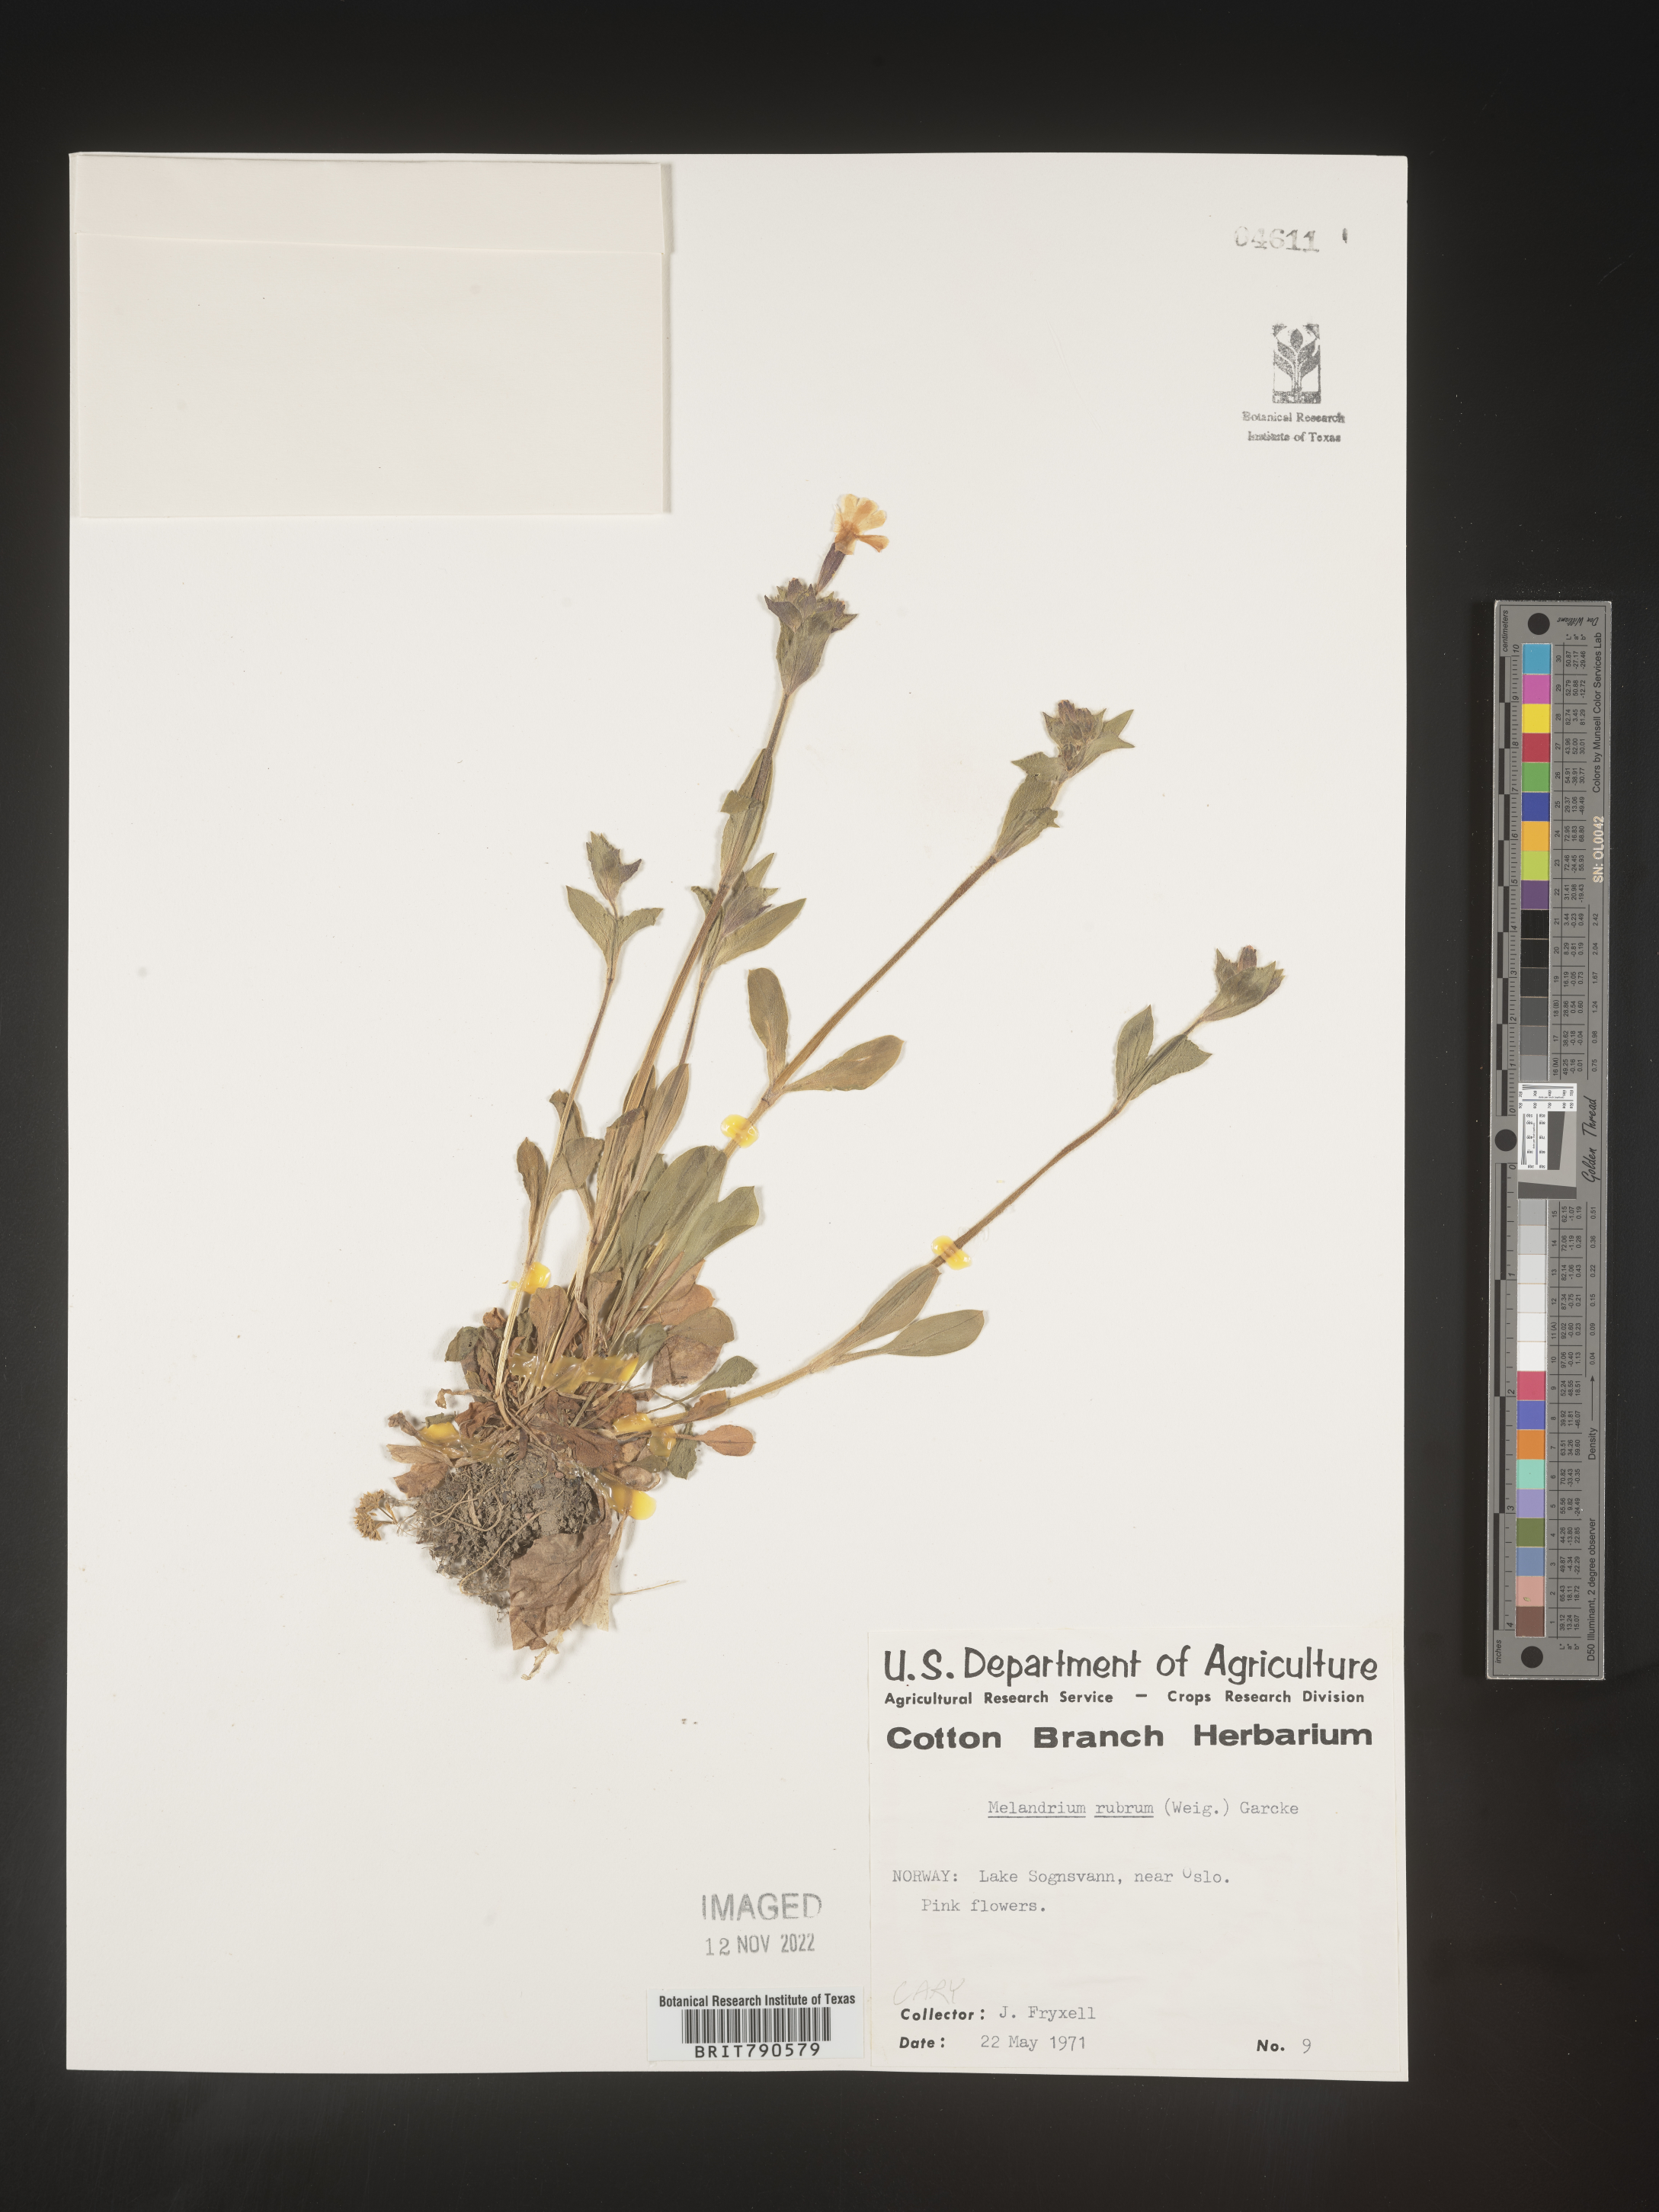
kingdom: Plantae
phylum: Tracheophyta
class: Magnoliopsida
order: Caryophyllales
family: Caryophyllaceae
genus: Silene
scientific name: Silene
